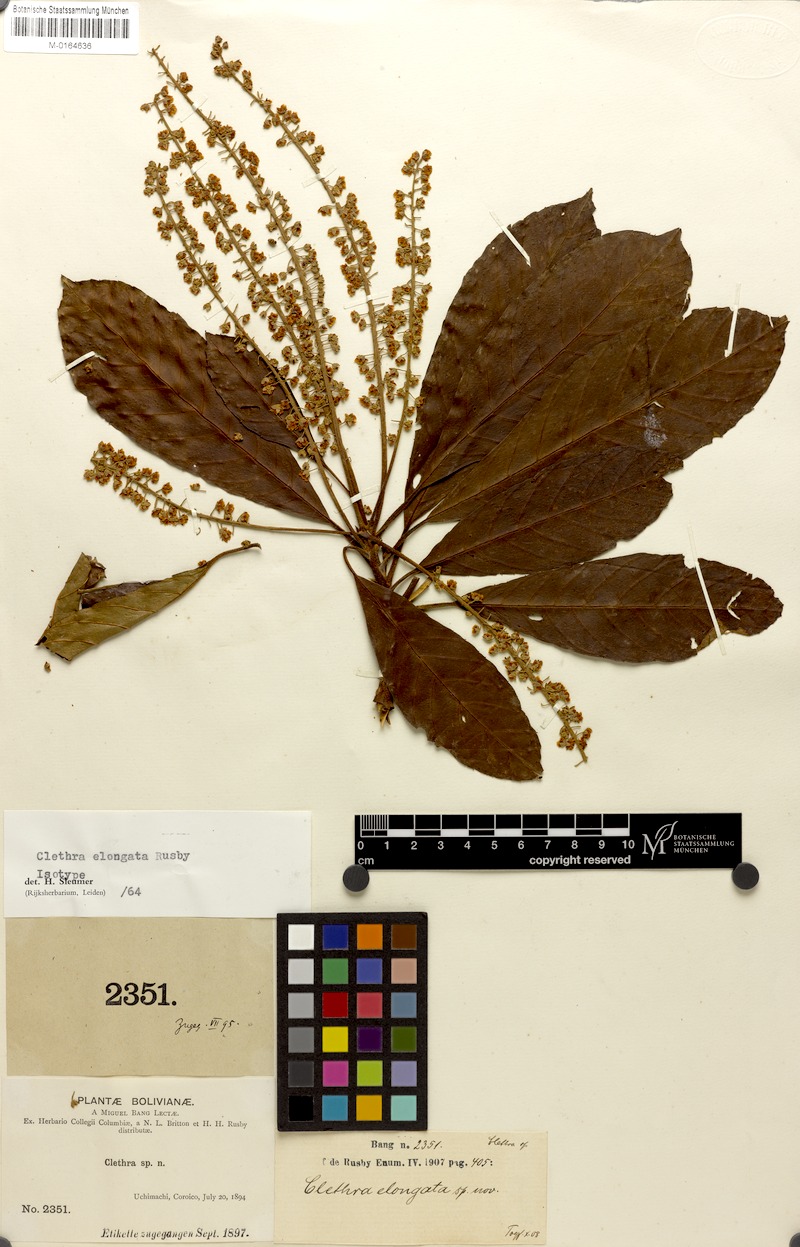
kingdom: Plantae
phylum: Tracheophyta
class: Magnoliopsida
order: Ericales
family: Clethraceae
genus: Clethra
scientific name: Clethra elongata
